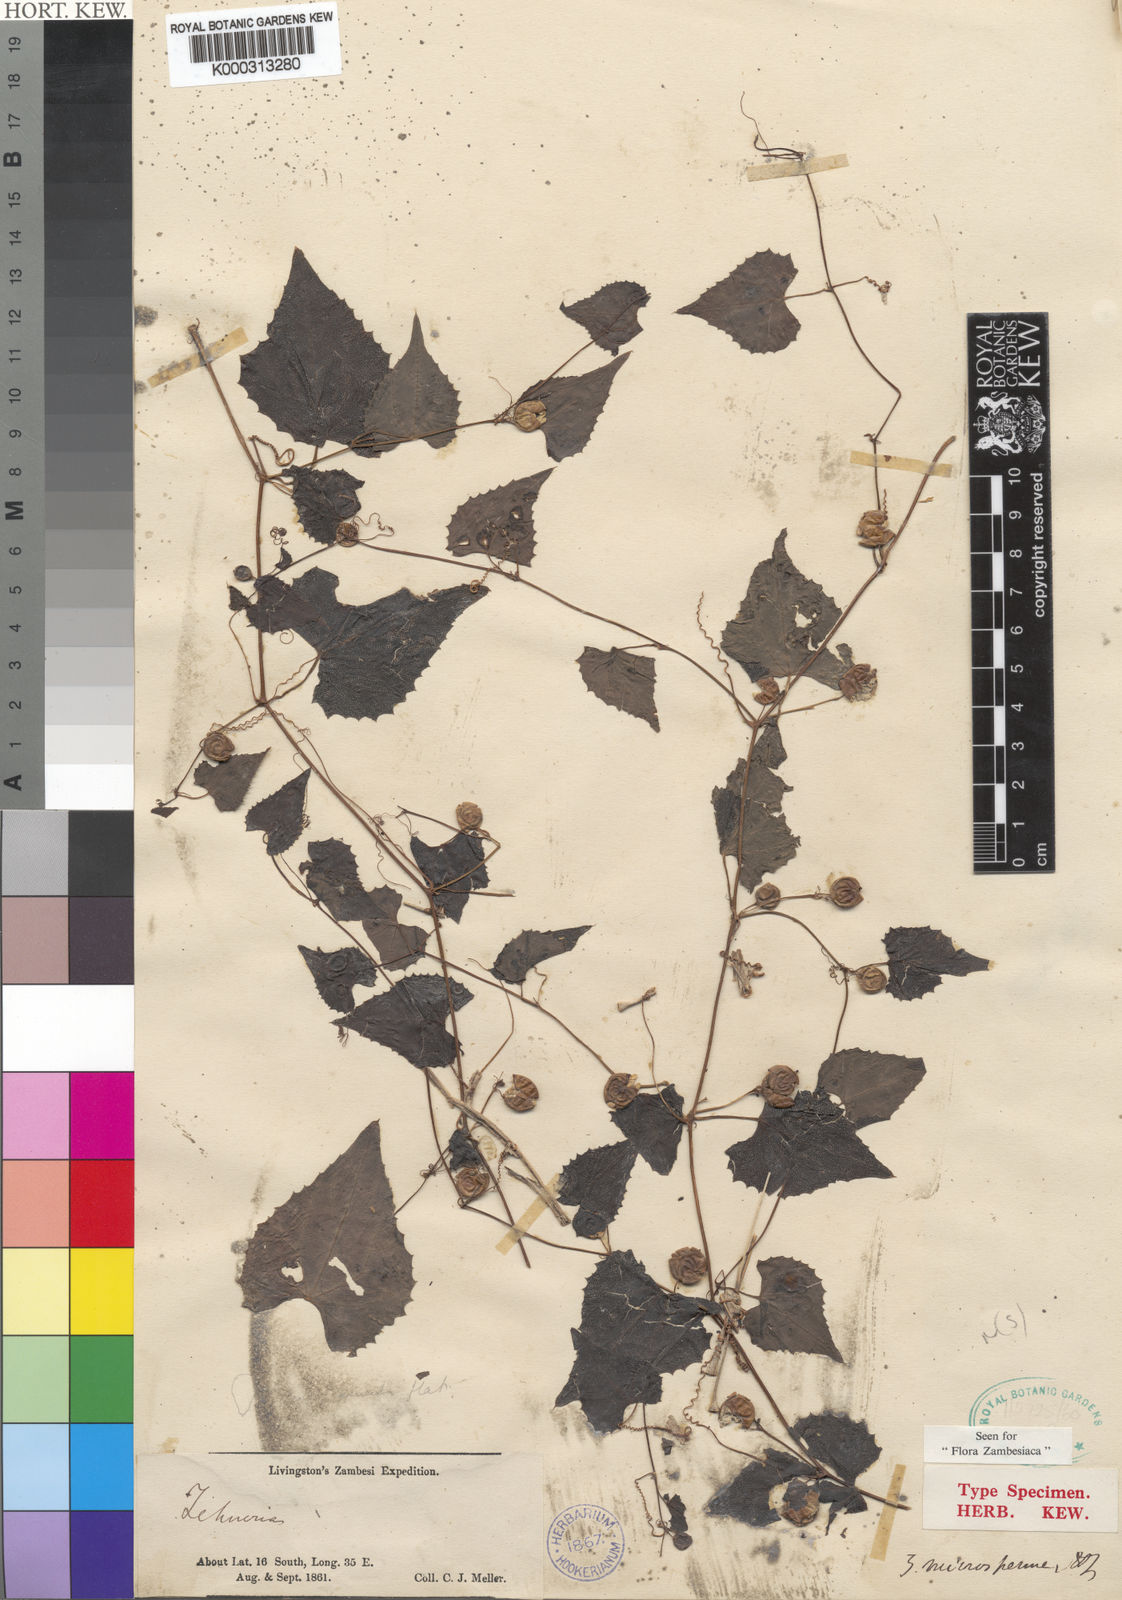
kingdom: Plantae
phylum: Tracheophyta
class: Magnoliopsida
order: Cucurbitales
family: Cucurbitaceae
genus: Zehneria
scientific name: Zehneria microsperma
